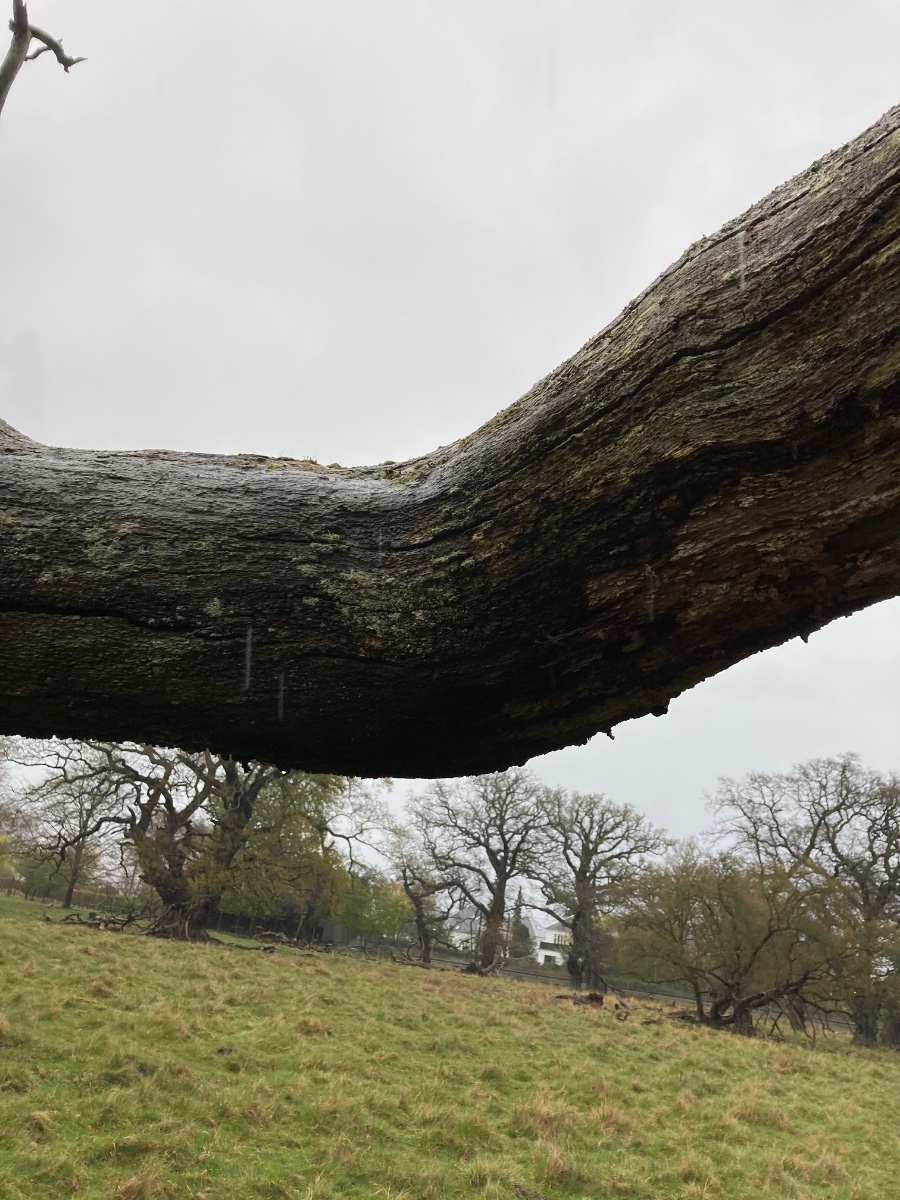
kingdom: Fungi
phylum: Ascomycota
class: Lecanoromycetes
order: Lecanorales
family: Parmeliaceae
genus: Imshaugia
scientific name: Imshaugia aleurites
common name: kliddet stolpelav
